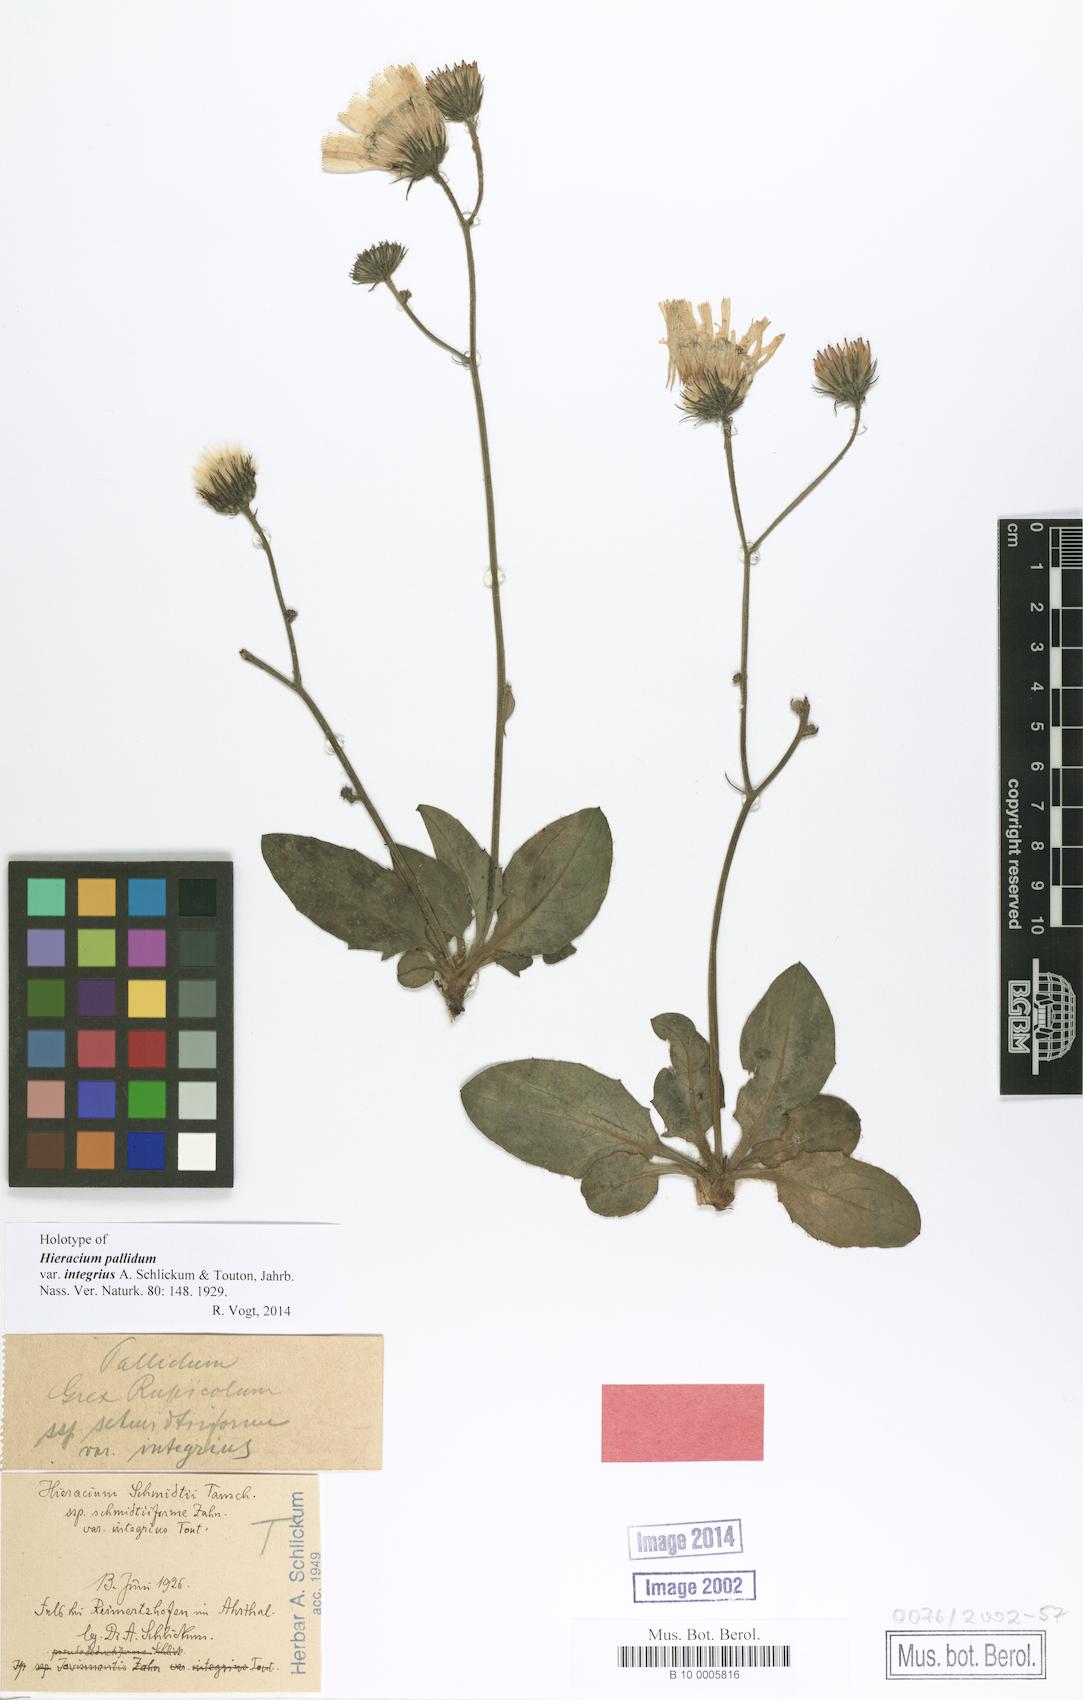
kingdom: Plantae
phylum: Tracheophyta
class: Magnoliopsida
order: Asterales
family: Asteraceae
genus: Hieracium
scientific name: Hieracium pallidum
